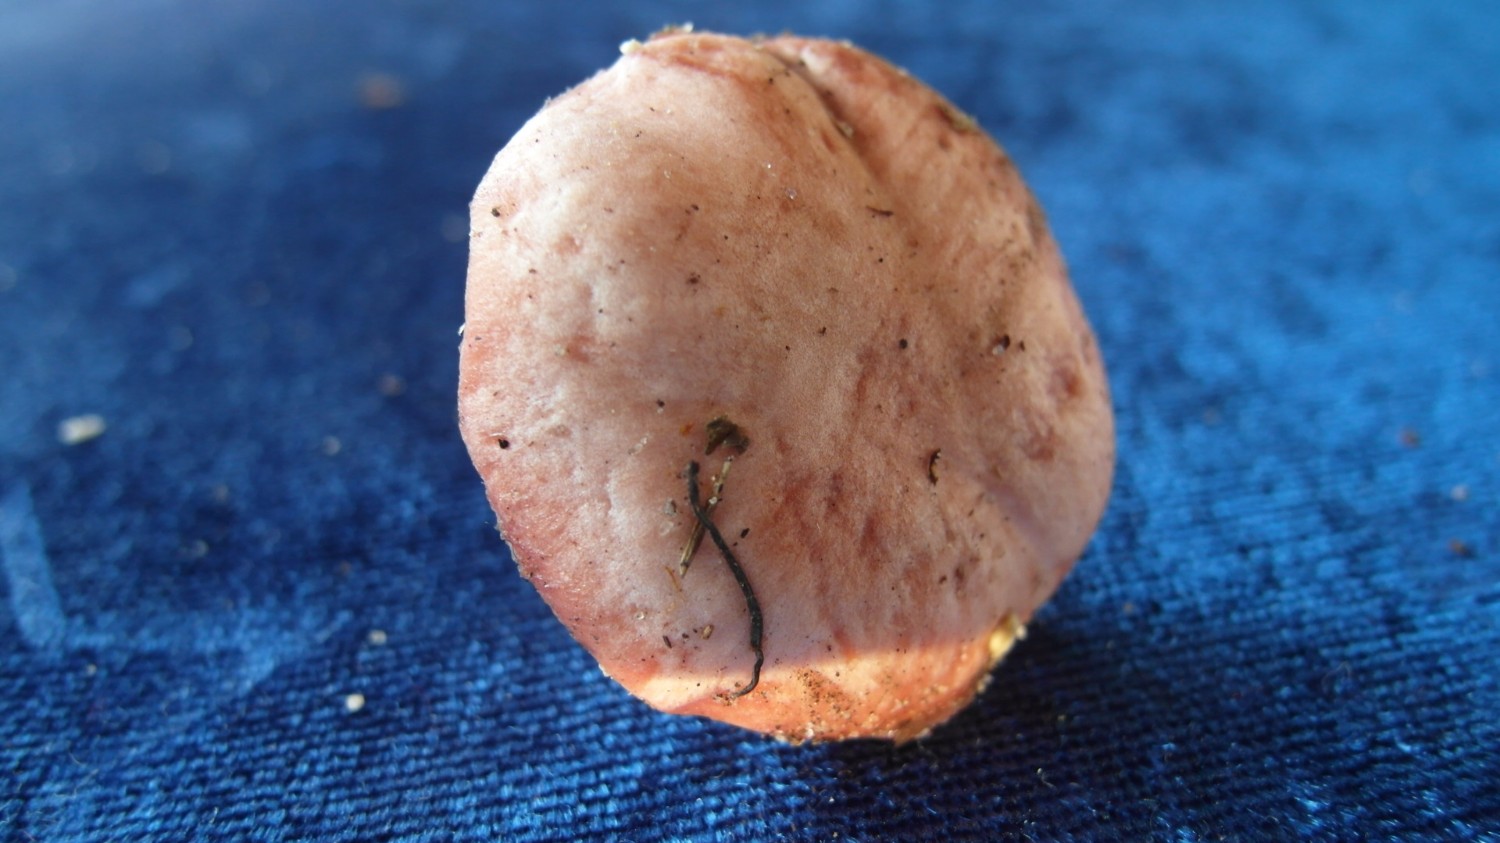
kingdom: Fungi
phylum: Basidiomycota
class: Agaricomycetes
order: Boletales
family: Gomphidiaceae
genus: Gomphidius
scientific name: Gomphidius roseus
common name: rosenrød slimslør
